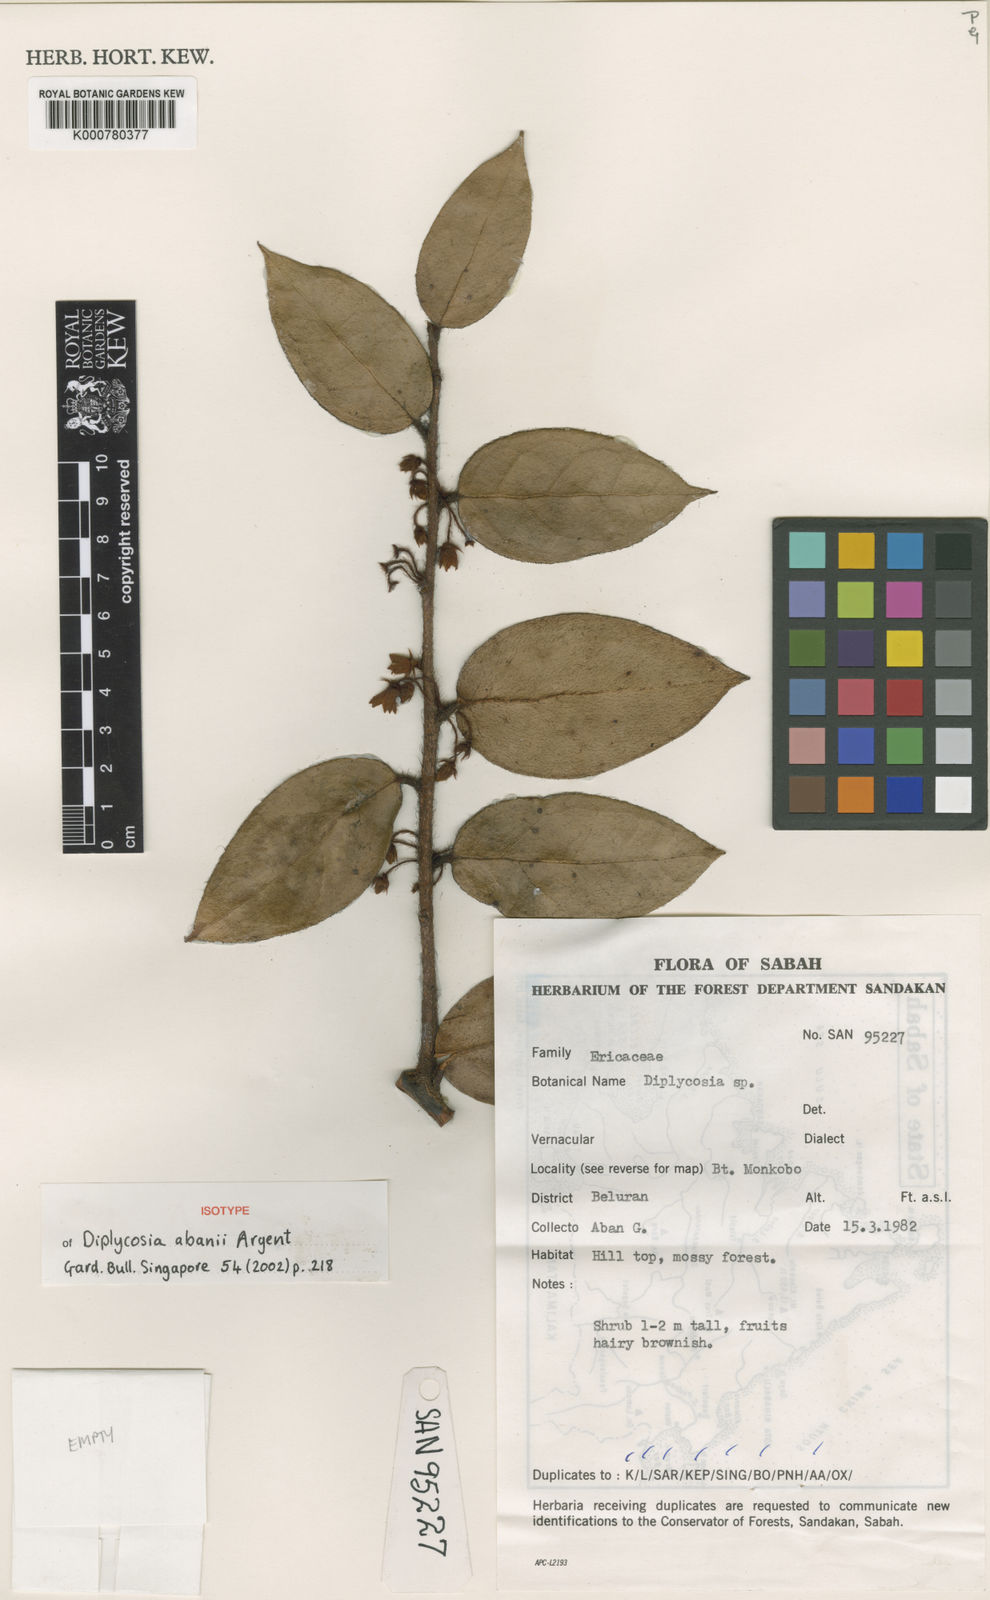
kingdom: Plantae
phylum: Tracheophyta
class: Magnoliopsida
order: Ericales
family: Ericaceae
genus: Gaultheria
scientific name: Gaultheria abanii
